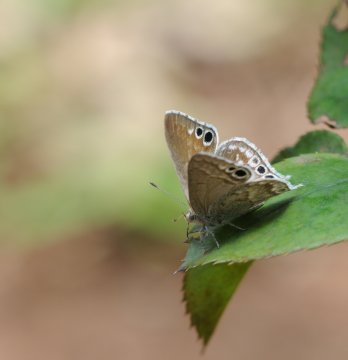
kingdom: Animalia
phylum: Arthropoda
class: Insecta
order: Lepidoptera
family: Lycaenidae
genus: Leptomyrina
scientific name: Leptomyrina gorgias
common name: Common Black-eye
